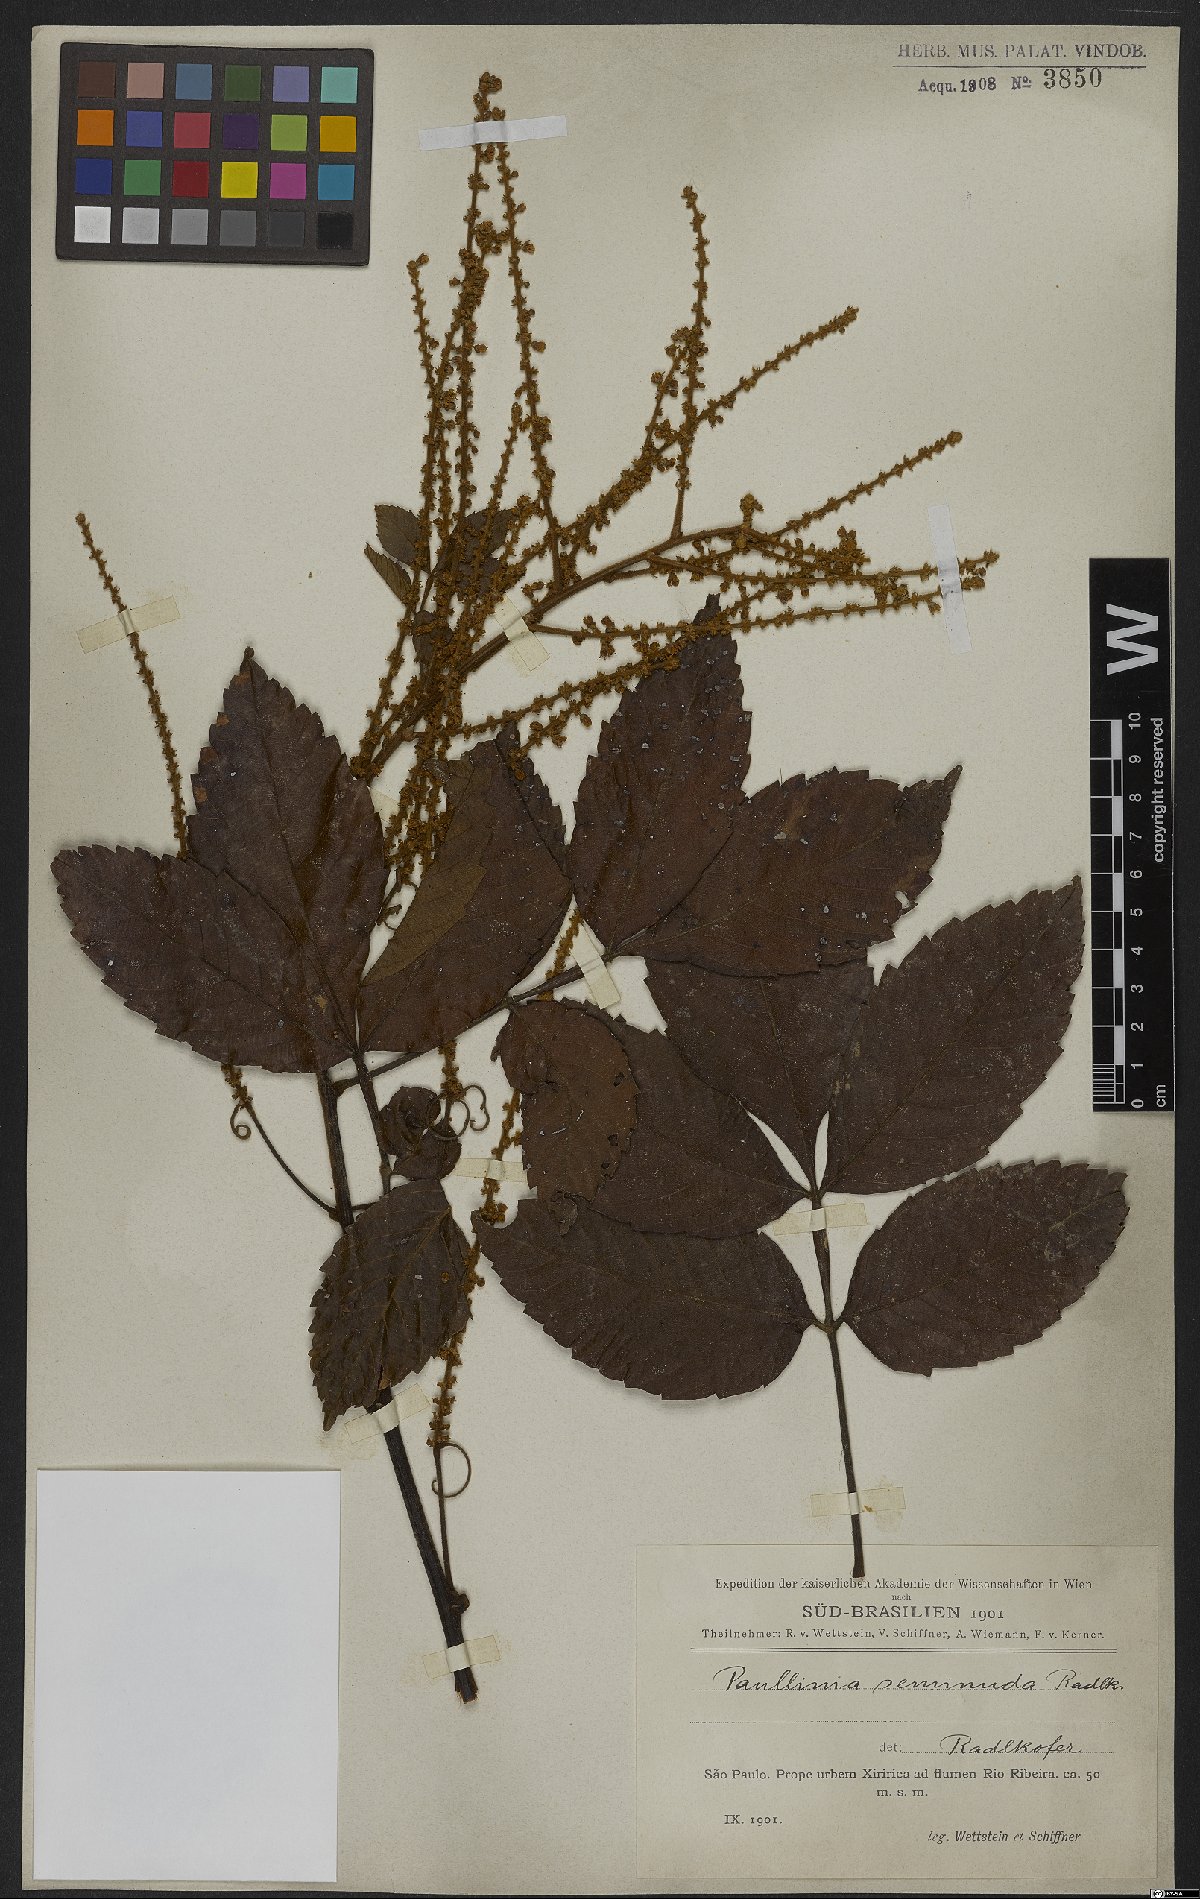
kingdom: Plantae
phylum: Tracheophyta
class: Magnoliopsida
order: Sapindales
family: Sapindaceae
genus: Paullinia
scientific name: Paullinia seminuda
